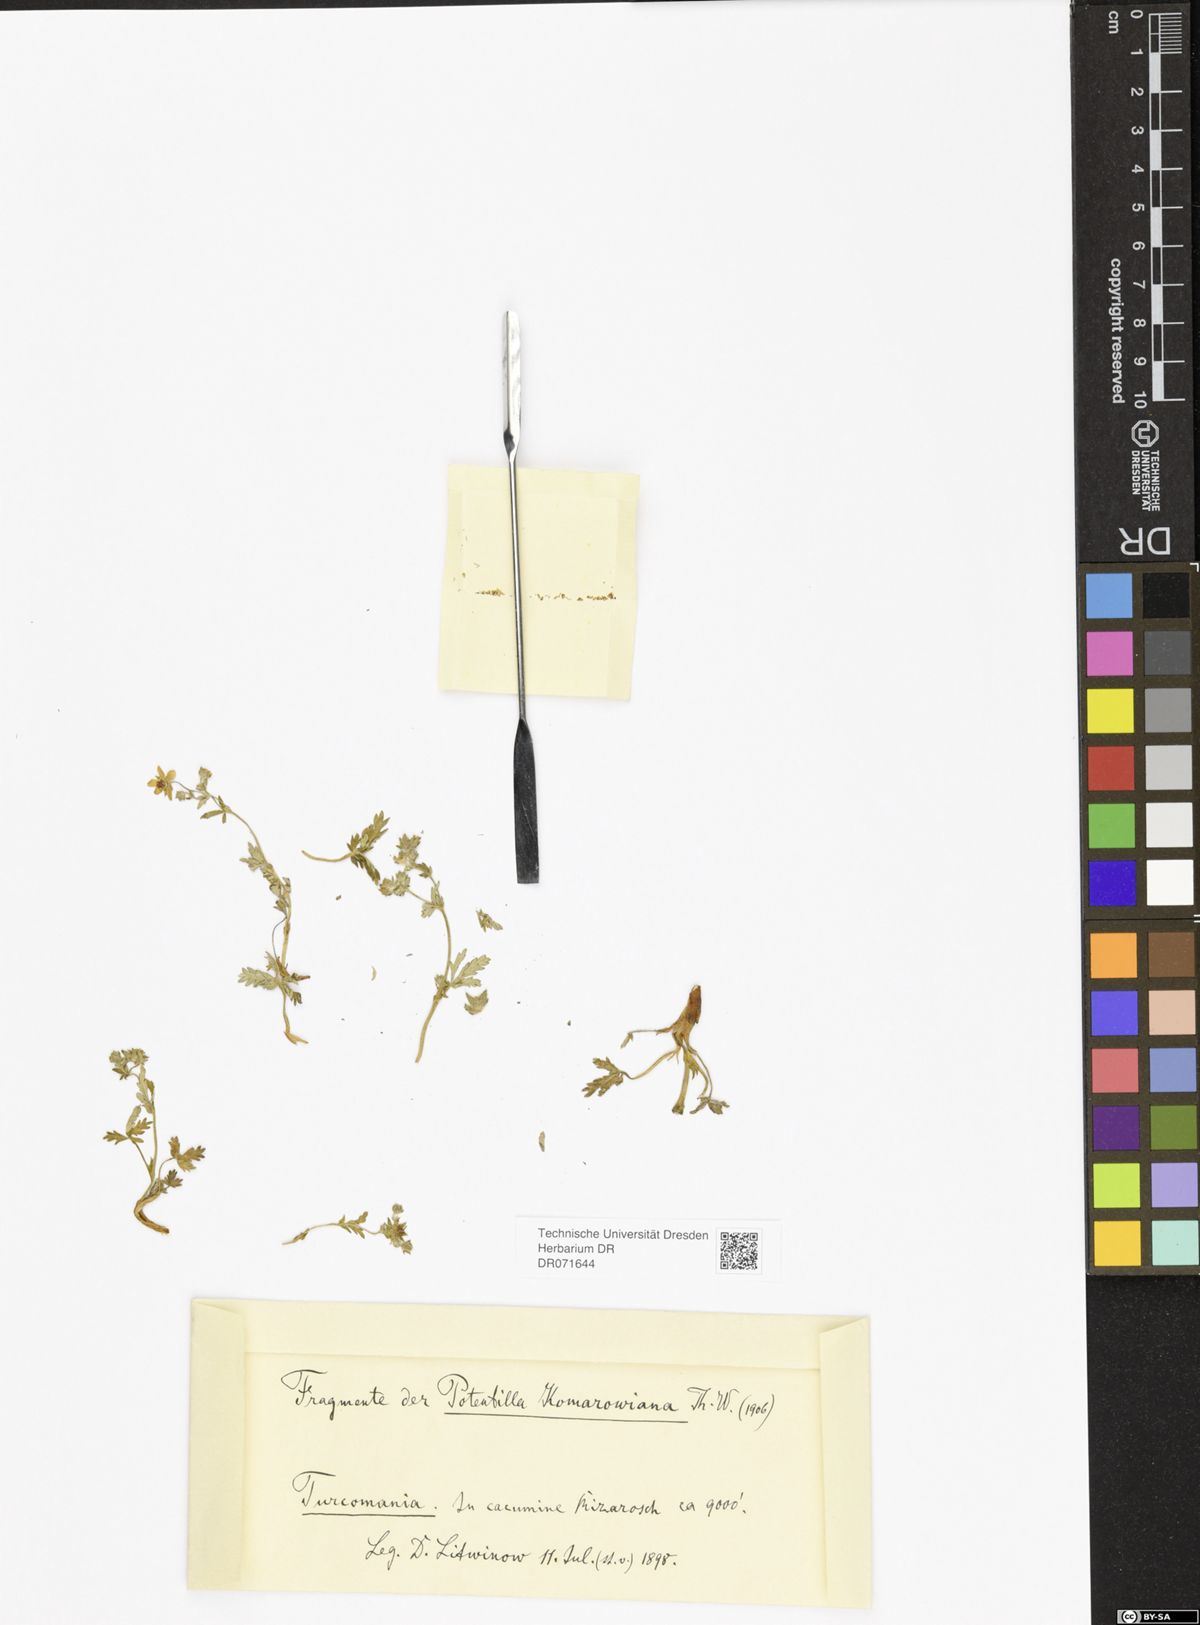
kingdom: Plantae
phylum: Tracheophyta
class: Magnoliopsida
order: Rosales
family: Rosaceae
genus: Potentilla
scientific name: Potentilla mollissima
